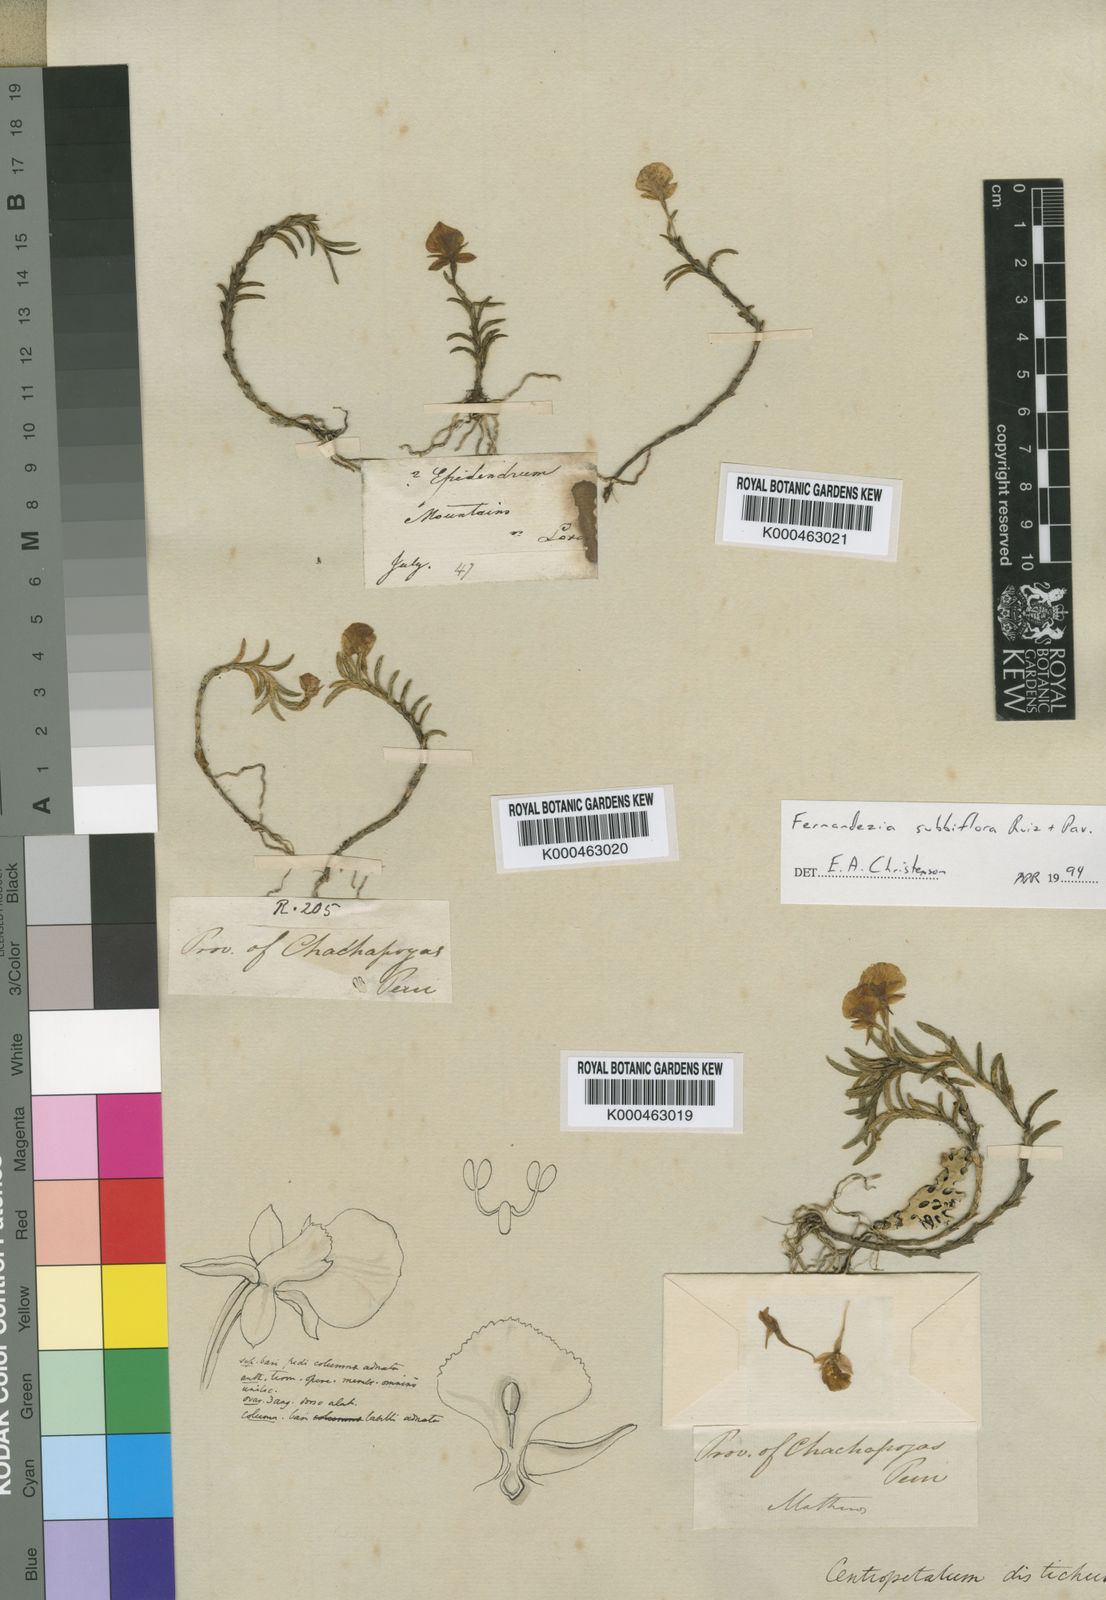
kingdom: Plantae
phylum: Tracheophyta
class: Liliopsida
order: Asparagales
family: Orchidaceae
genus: Fernandezia
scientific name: Fernandezia
